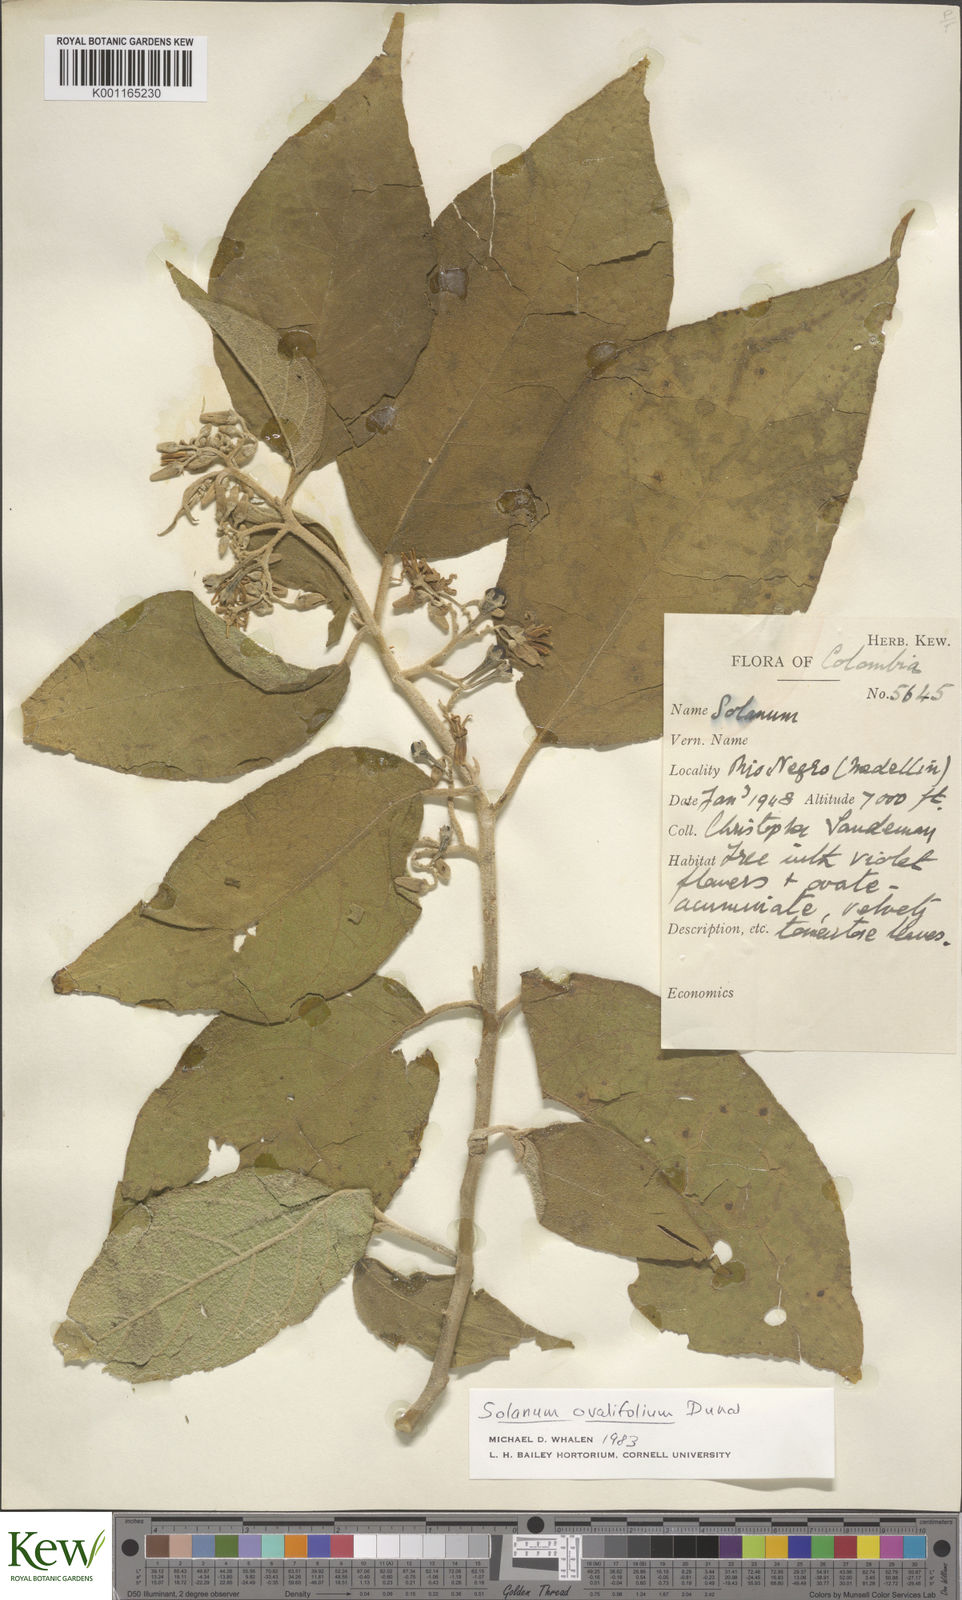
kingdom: Plantae
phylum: Tracheophyta
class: Magnoliopsida
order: Solanales
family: Solanaceae
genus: Solanum
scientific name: Solanum oppositifolium
